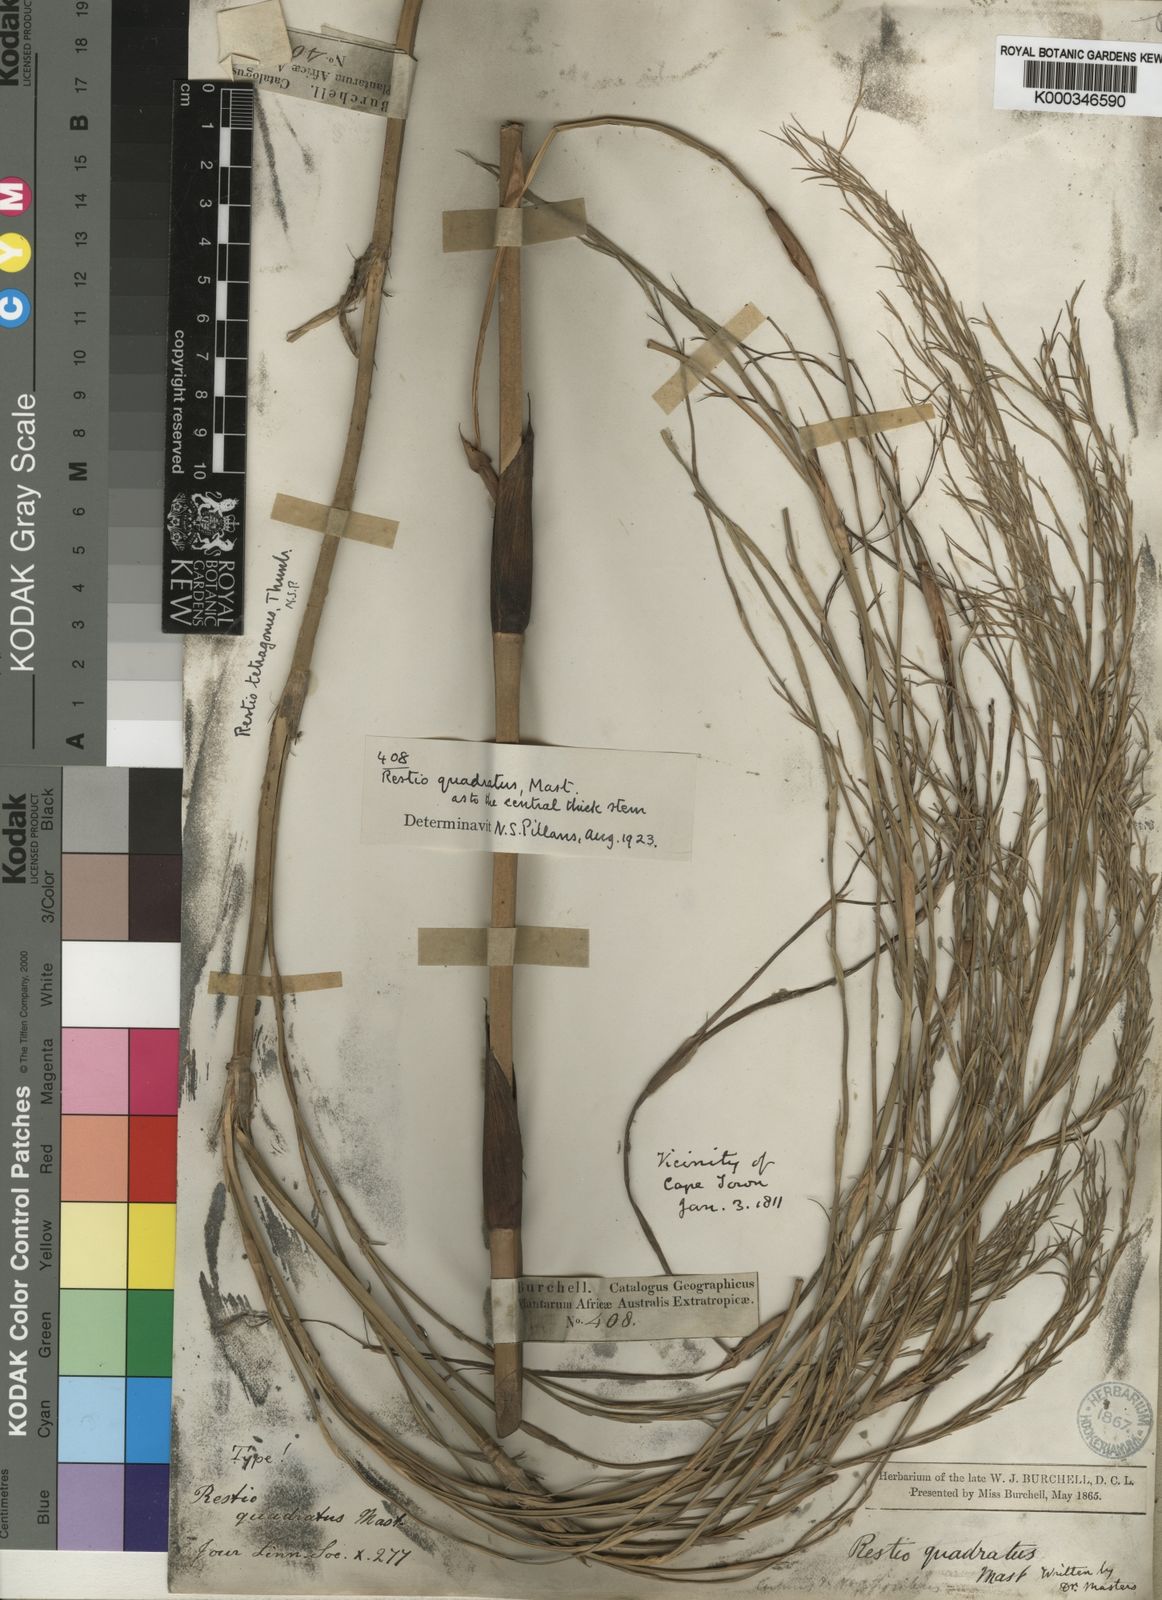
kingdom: Plantae
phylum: Tracheophyta
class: Liliopsida
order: Poales
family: Restionaceae
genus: Restio
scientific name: Restio quadratus
